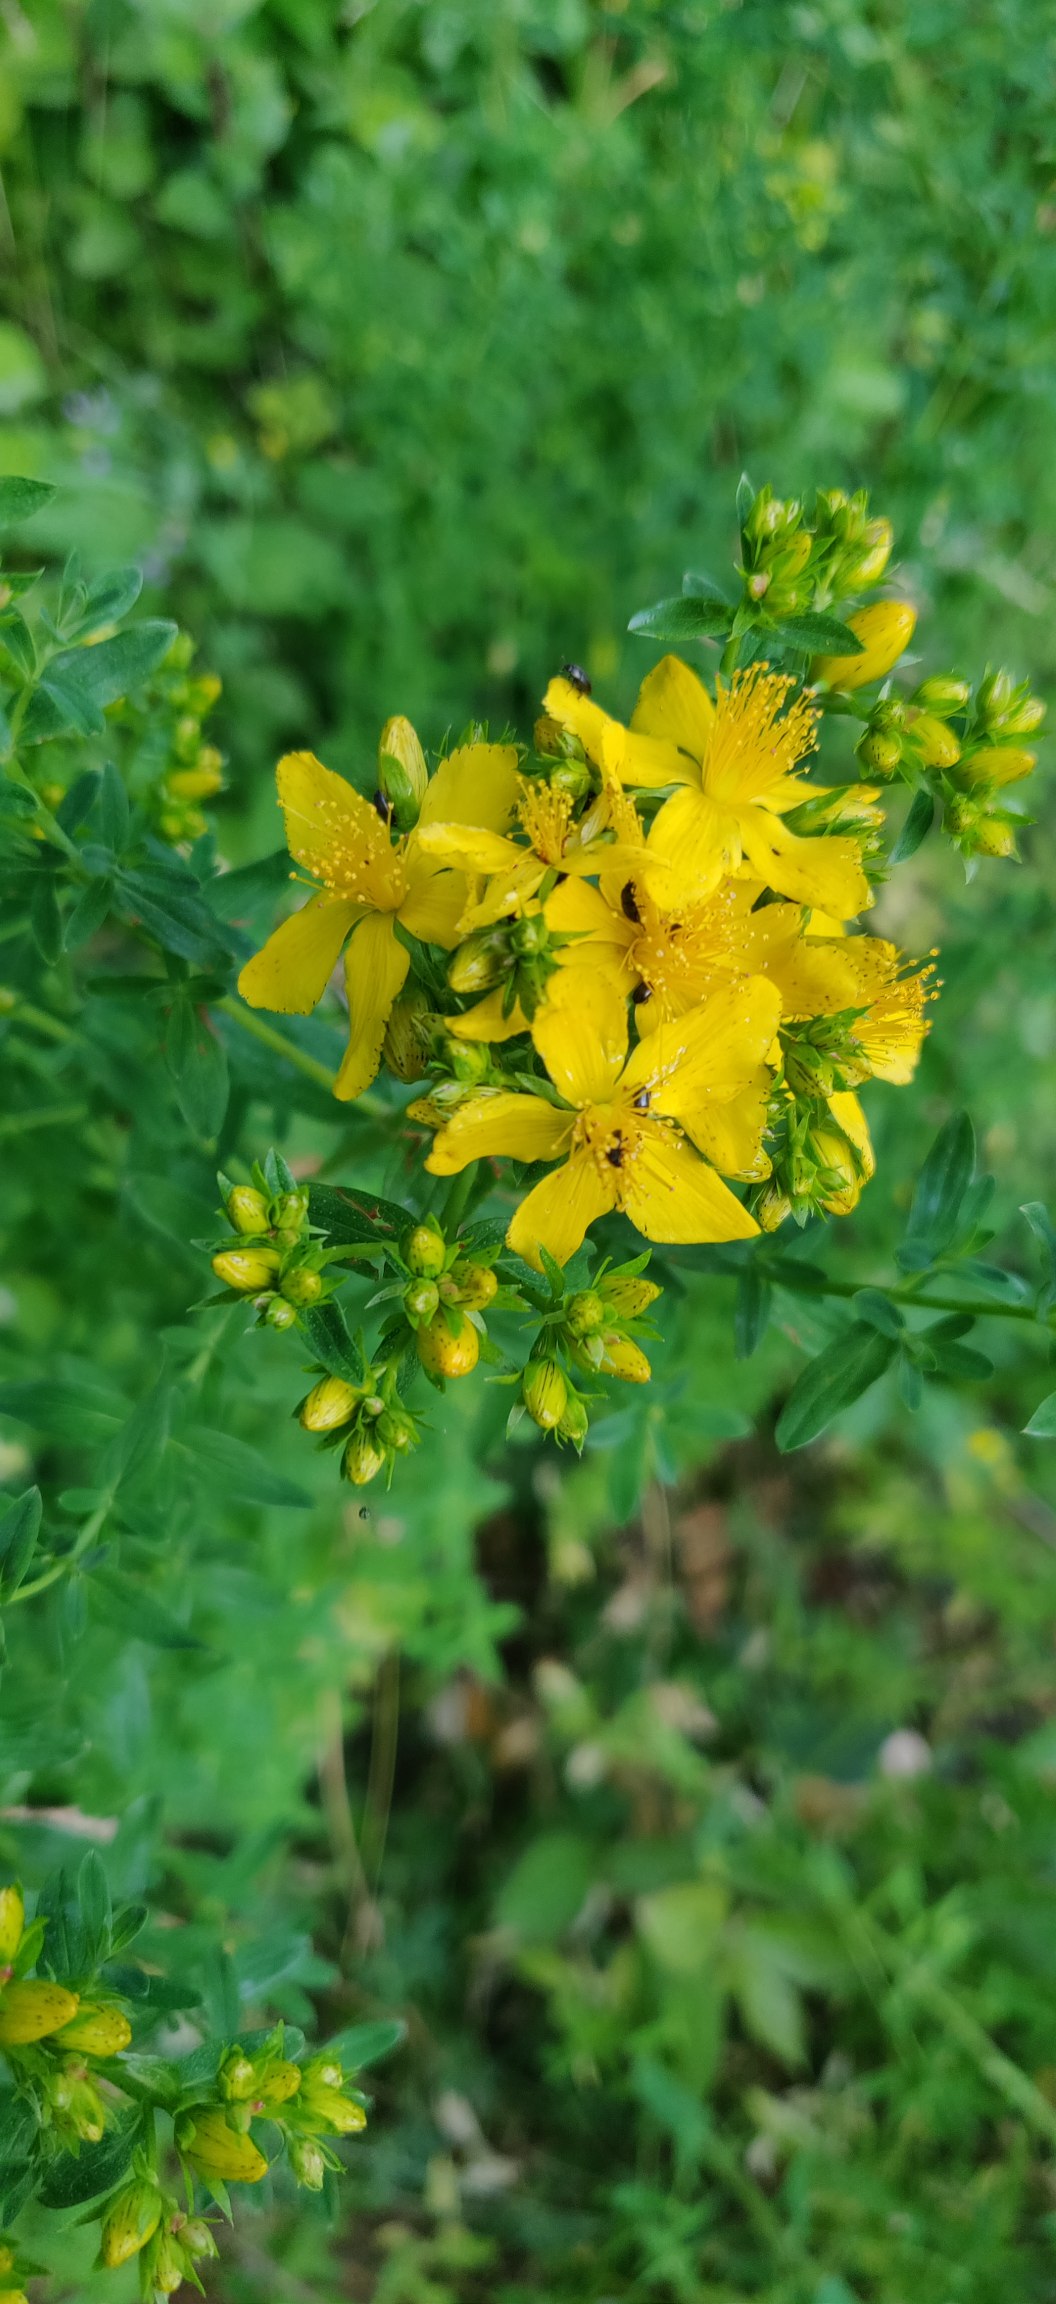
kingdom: Plantae
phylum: Tracheophyta
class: Magnoliopsida
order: Malpighiales
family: Hypericaceae
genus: Hypericum
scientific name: Hypericum perforatum
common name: Prikbladet perikon
